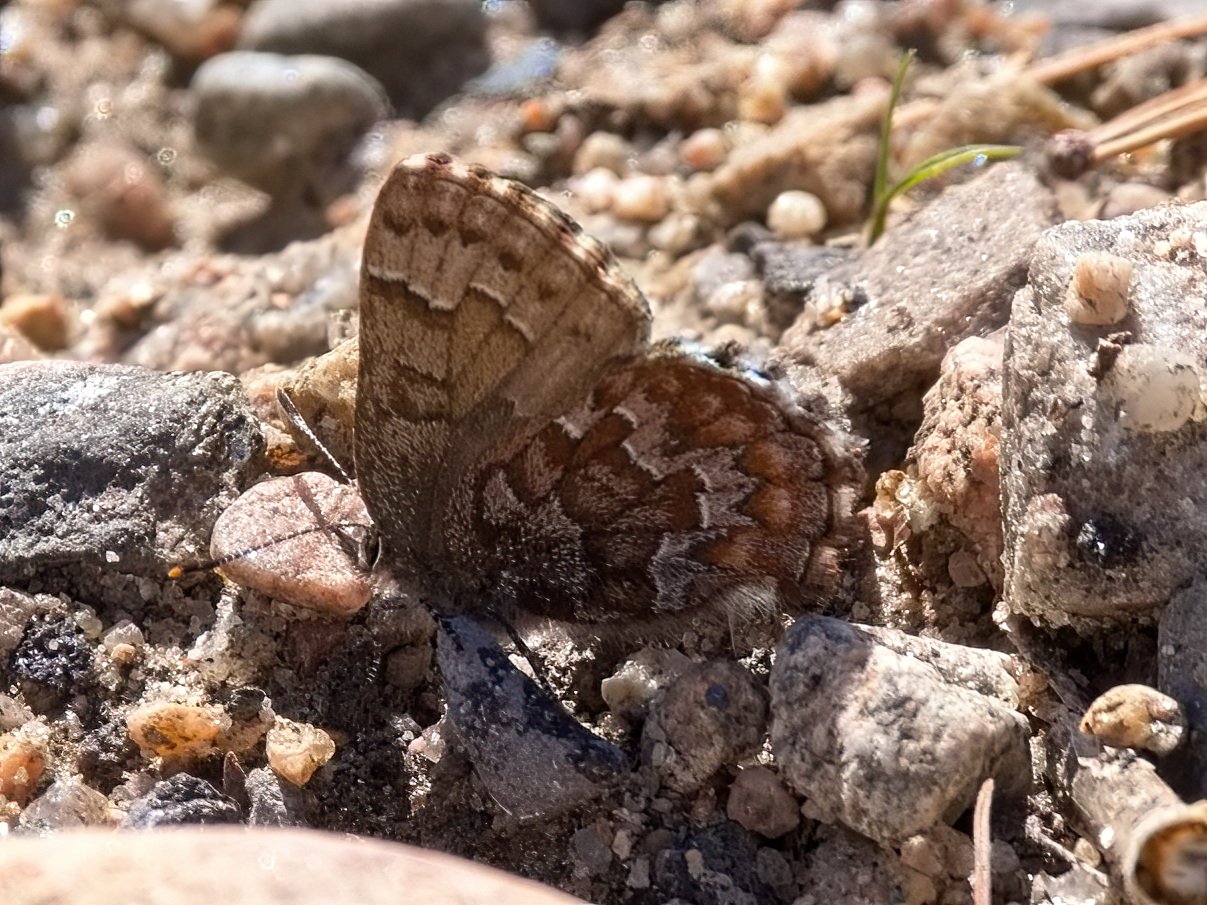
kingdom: Animalia
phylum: Arthropoda
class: Insecta
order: Lepidoptera
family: Lycaenidae
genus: Incisalia
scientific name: Incisalia niphon
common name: Eastern Pine Elfin
